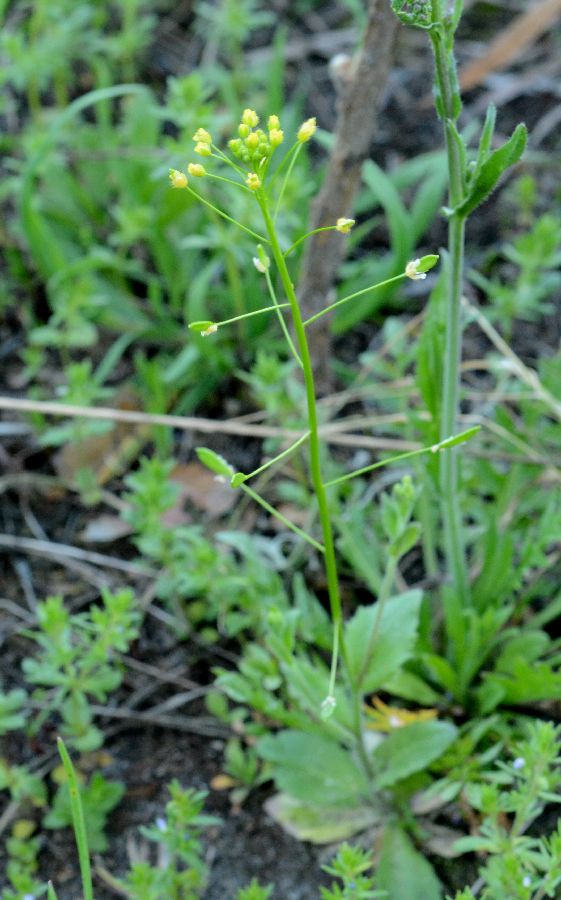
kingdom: Plantae
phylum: Tracheophyta
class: Magnoliopsida
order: Brassicales
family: Brassicaceae
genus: Draba
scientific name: Draba nemorosa
